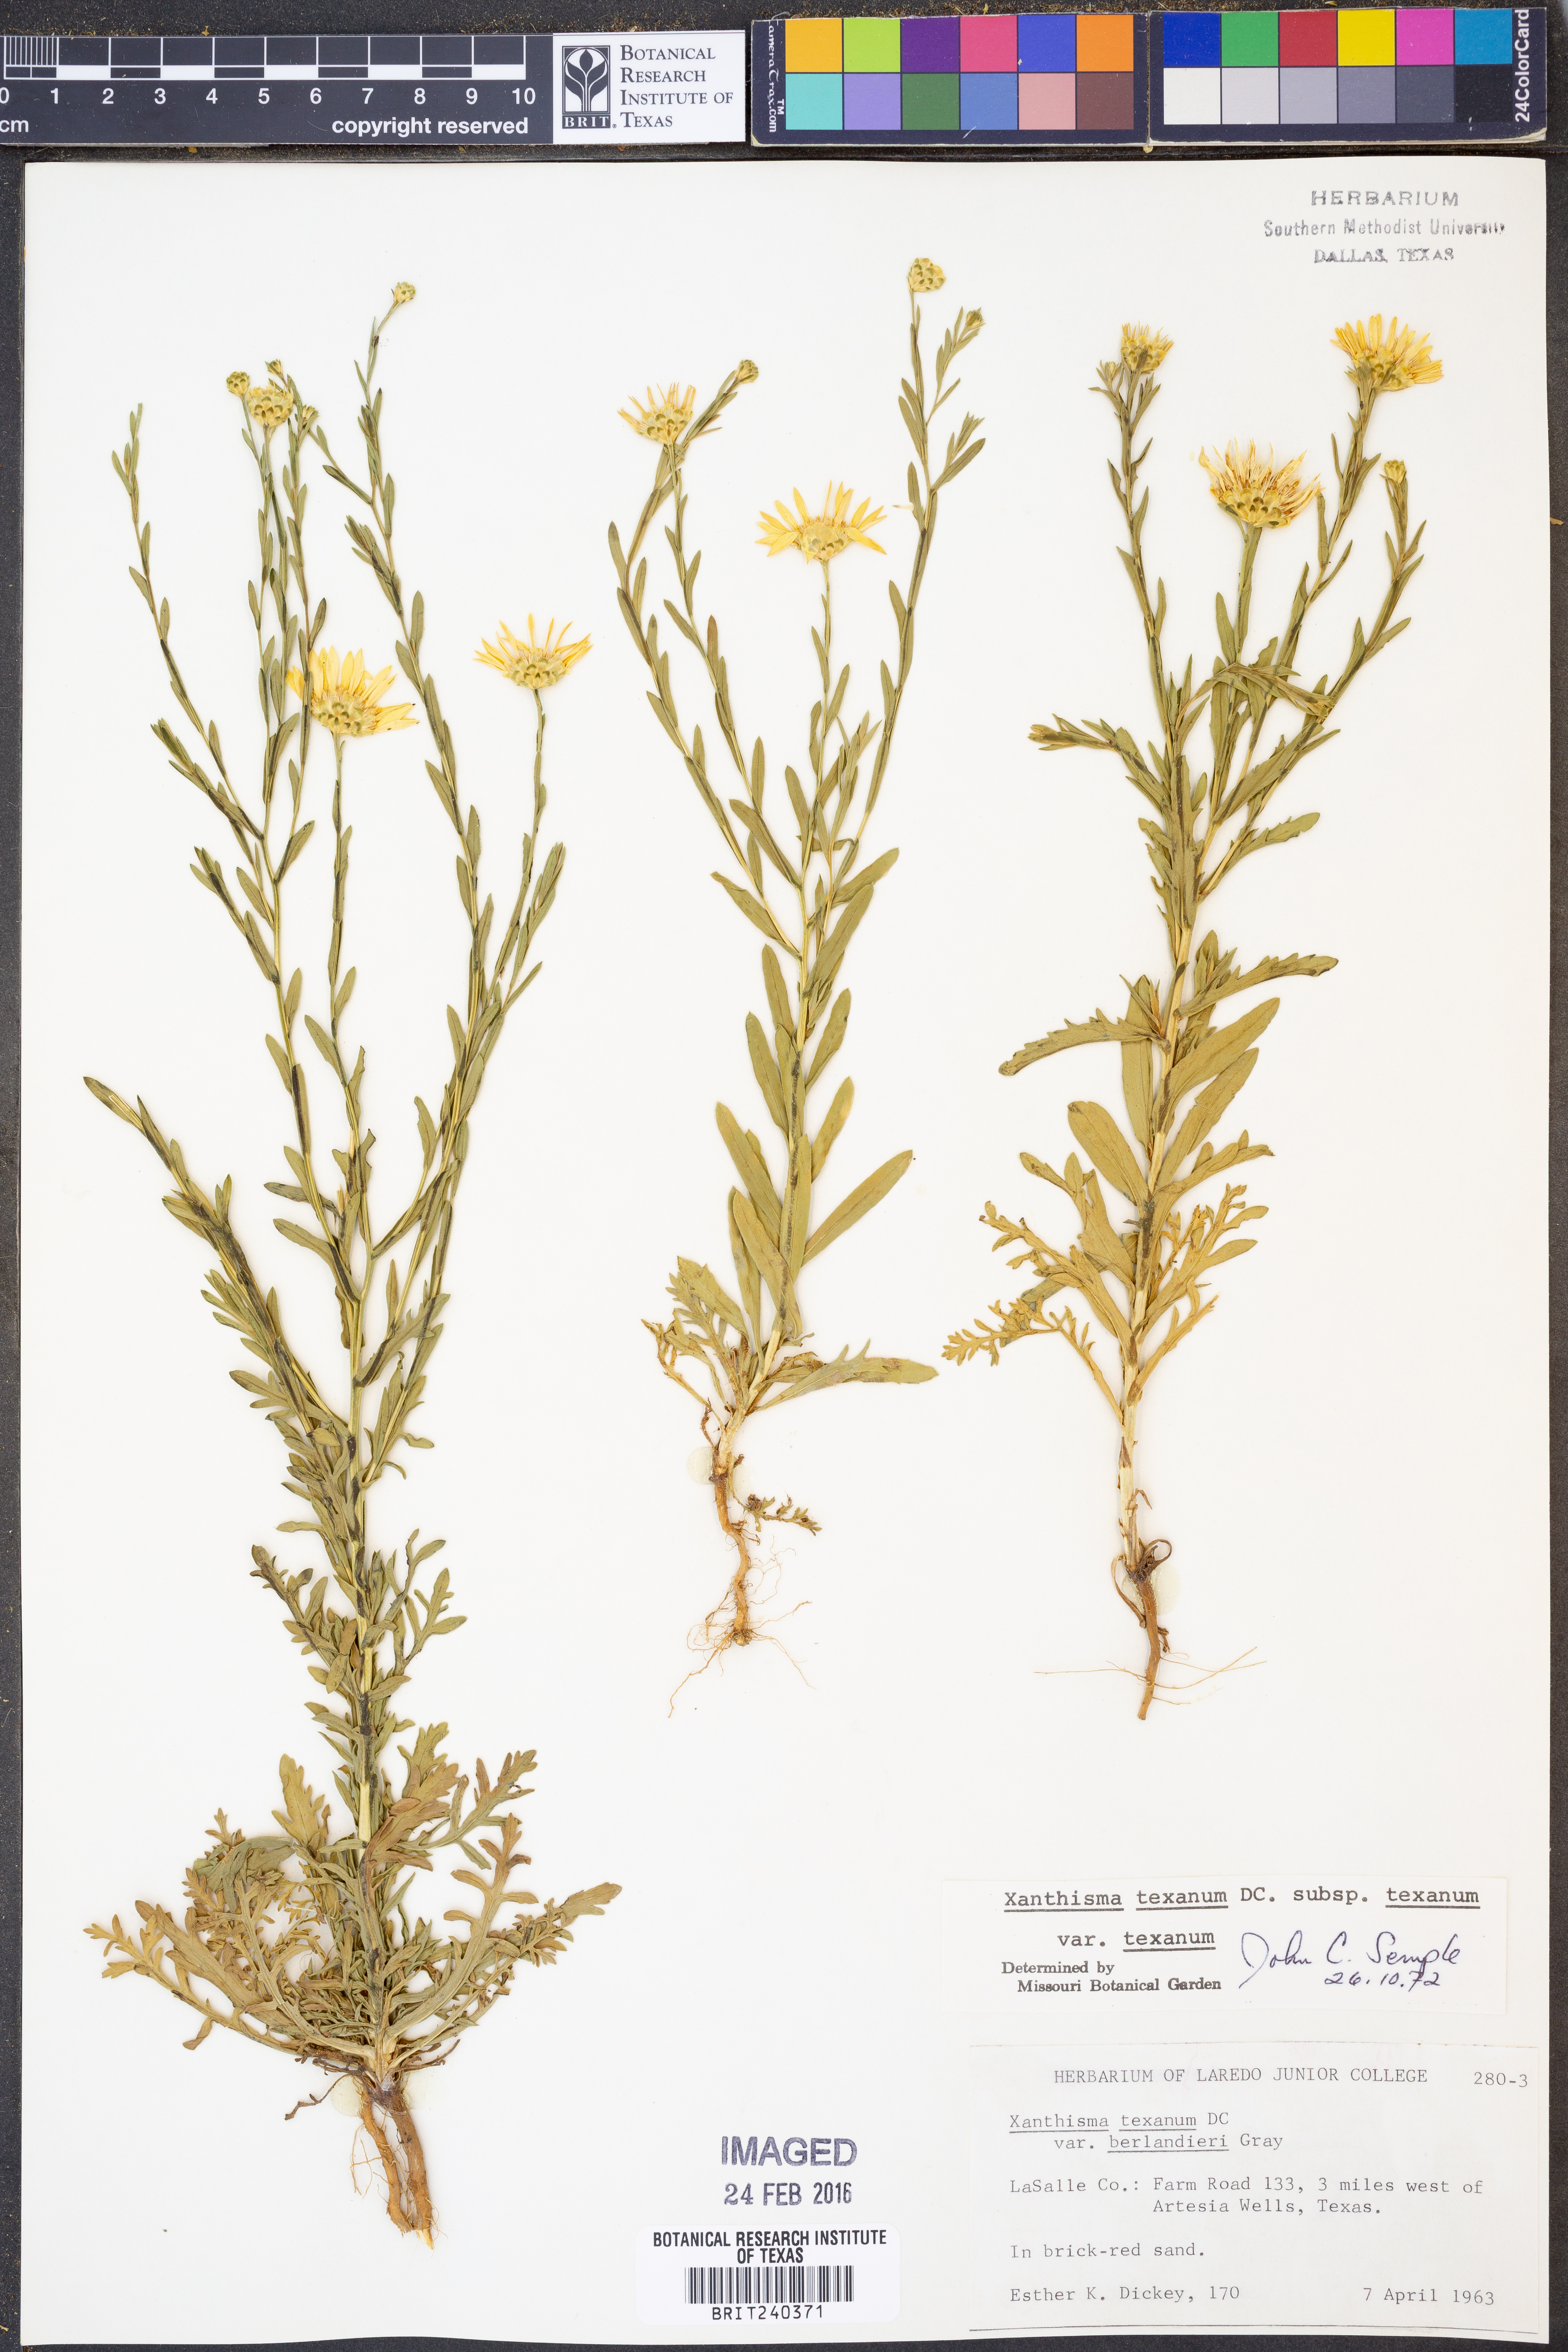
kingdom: Plantae
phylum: Tracheophyta
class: Magnoliopsida
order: Asterales
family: Asteraceae
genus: Xanthisma
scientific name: Xanthisma texanum
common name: Texas sleepy daisy
